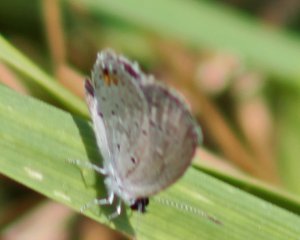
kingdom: Animalia
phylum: Arthropoda
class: Insecta
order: Lepidoptera
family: Lycaenidae
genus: Elkalyce
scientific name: Elkalyce comyntas
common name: Eastern Tailed-Blue
